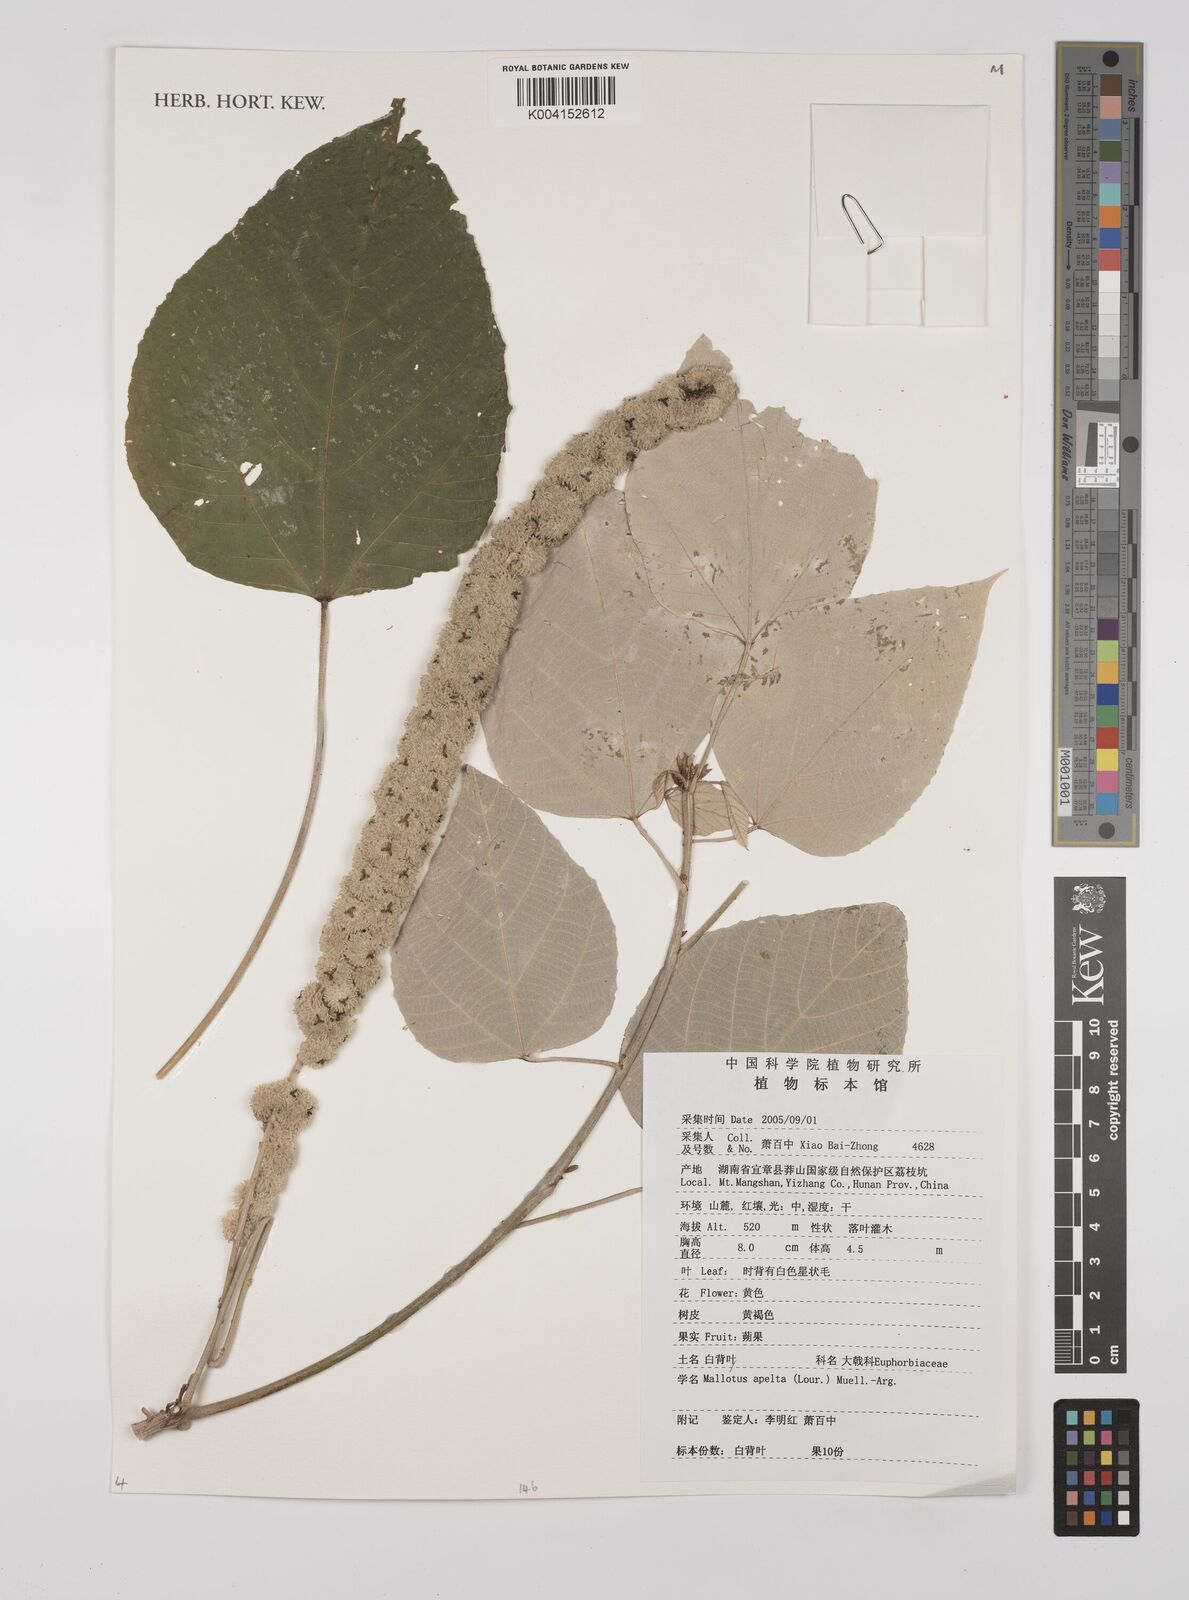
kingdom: Plantae
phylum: Tracheophyta
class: Magnoliopsida
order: Malpighiales
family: Euphorbiaceae
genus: Mallotus
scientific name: Mallotus apelta
